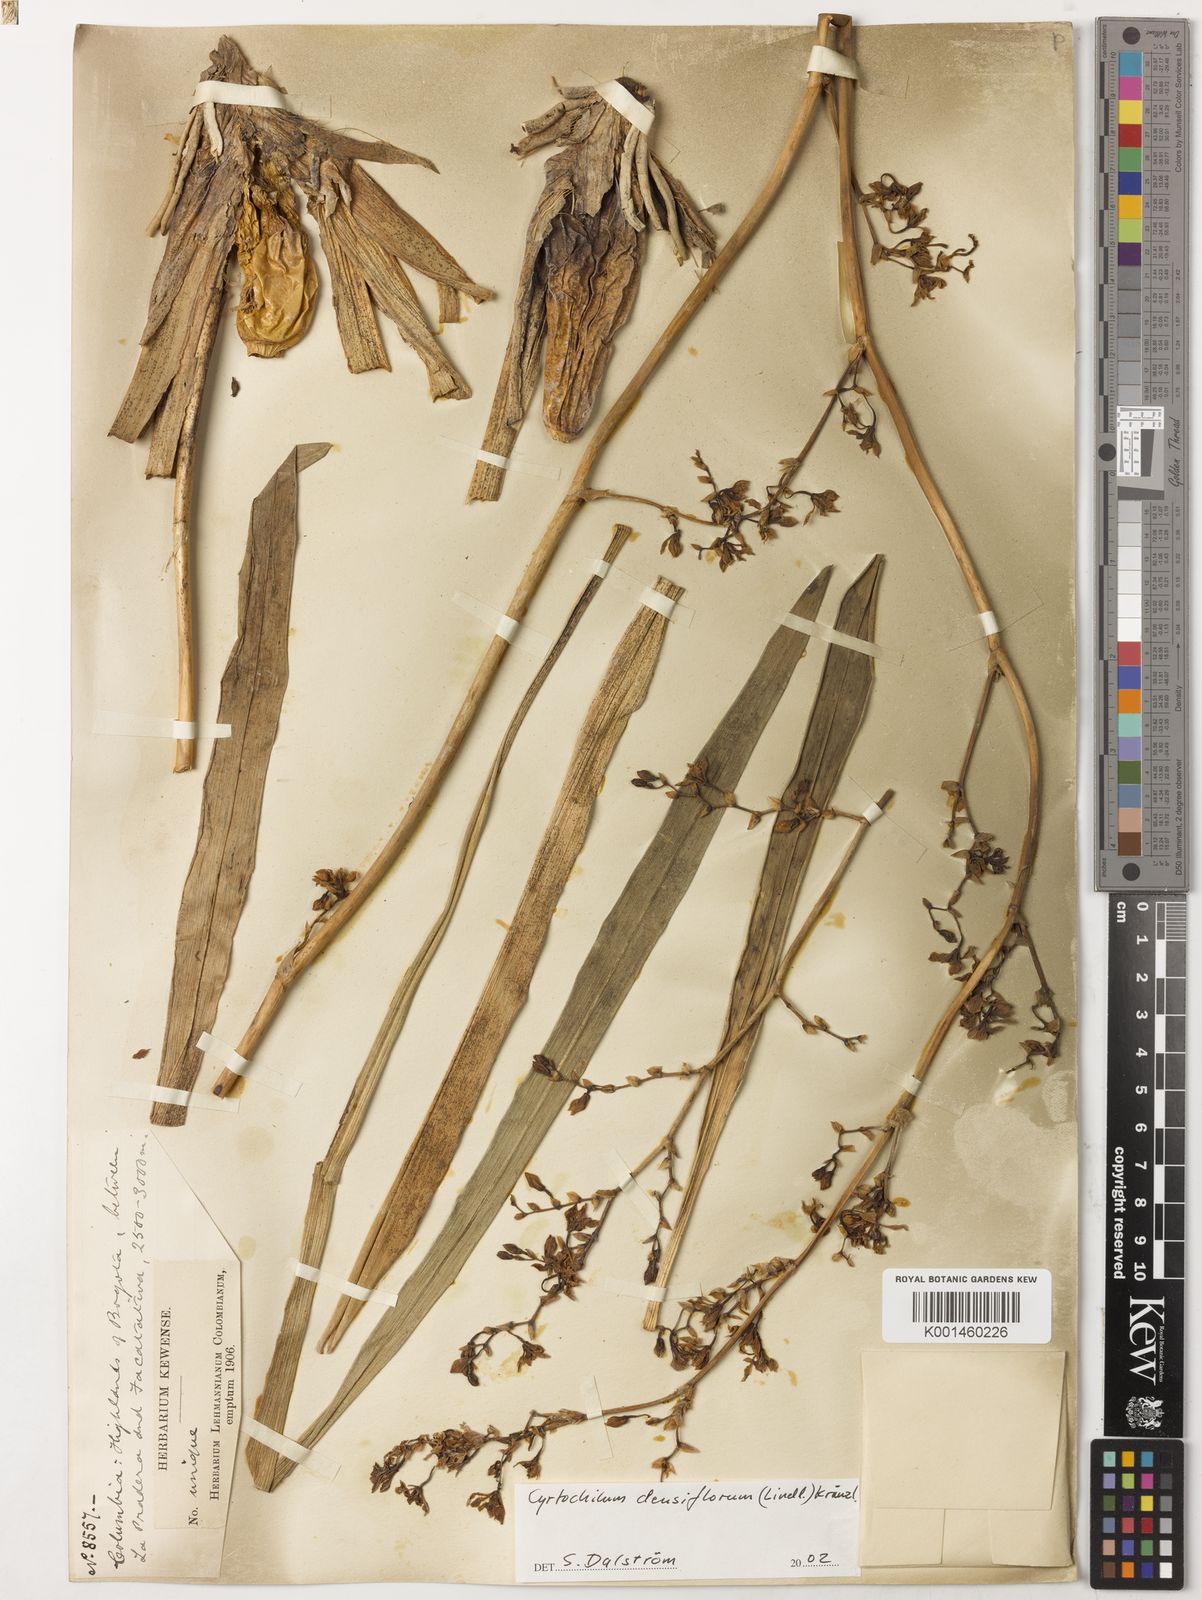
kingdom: Plantae
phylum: Tracheophyta
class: Liliopsida
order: Asparagales
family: Orchidaceae
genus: Cyrtochilum
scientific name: Cyrtochilum densiflorum
